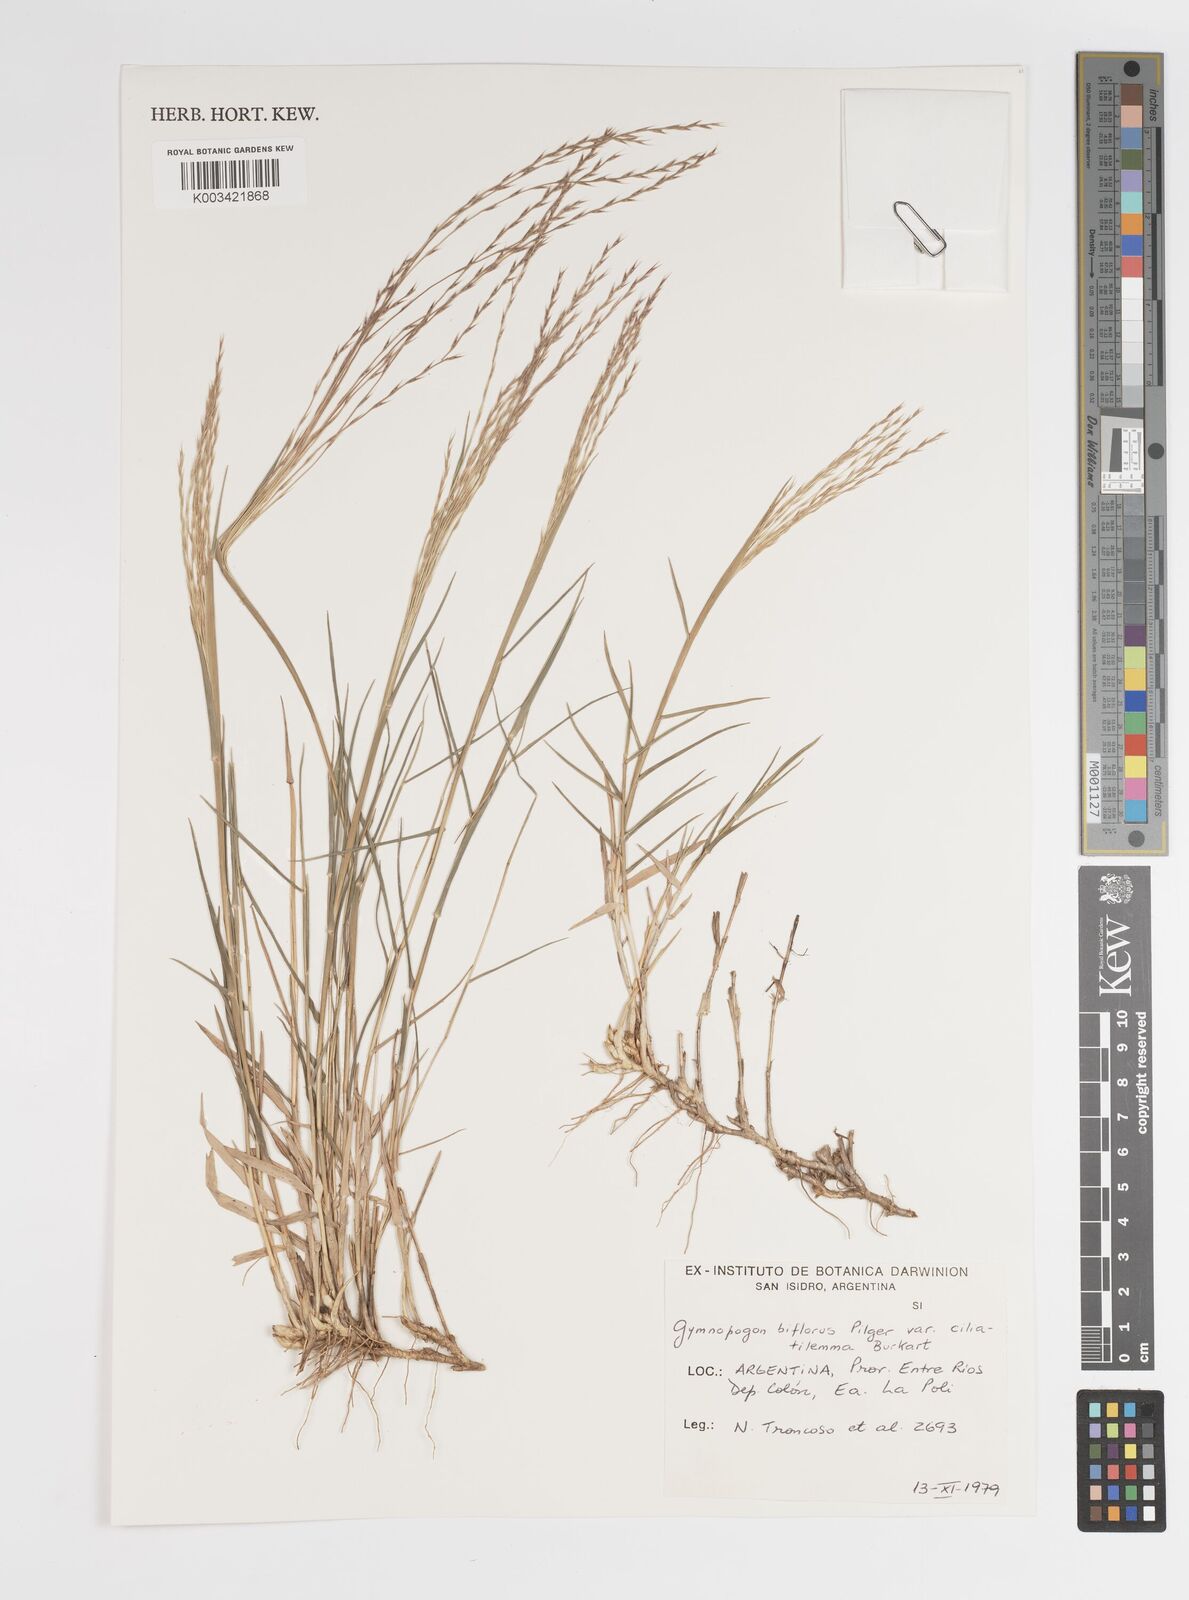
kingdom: Plantae
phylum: Tracheophyta
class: Liliopsida
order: Poales
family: Poaceae
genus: Gymnopogon
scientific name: Gymnopogon spicatus
